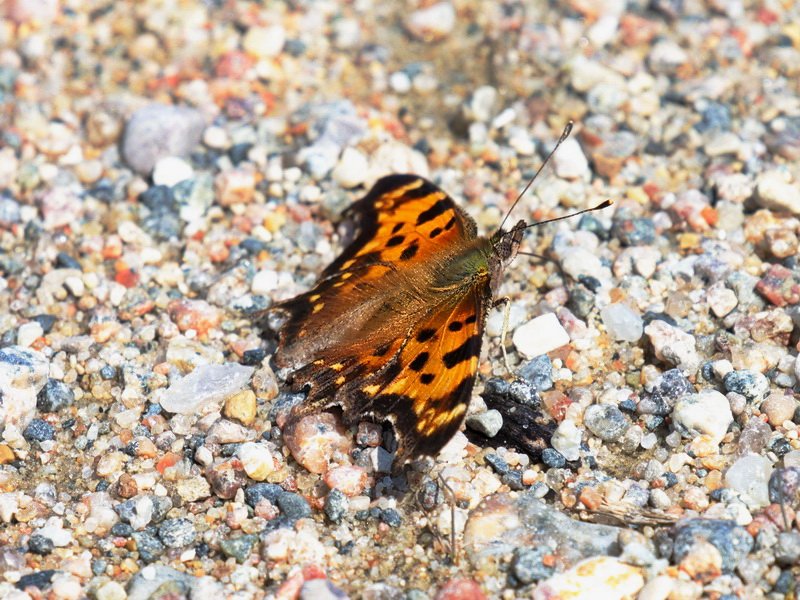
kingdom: Animalia
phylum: Arthropoda
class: Insecta
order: Lepidoptera
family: Nymphalidae
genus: Polygonia
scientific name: Polygonia faunus
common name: Green Comma
